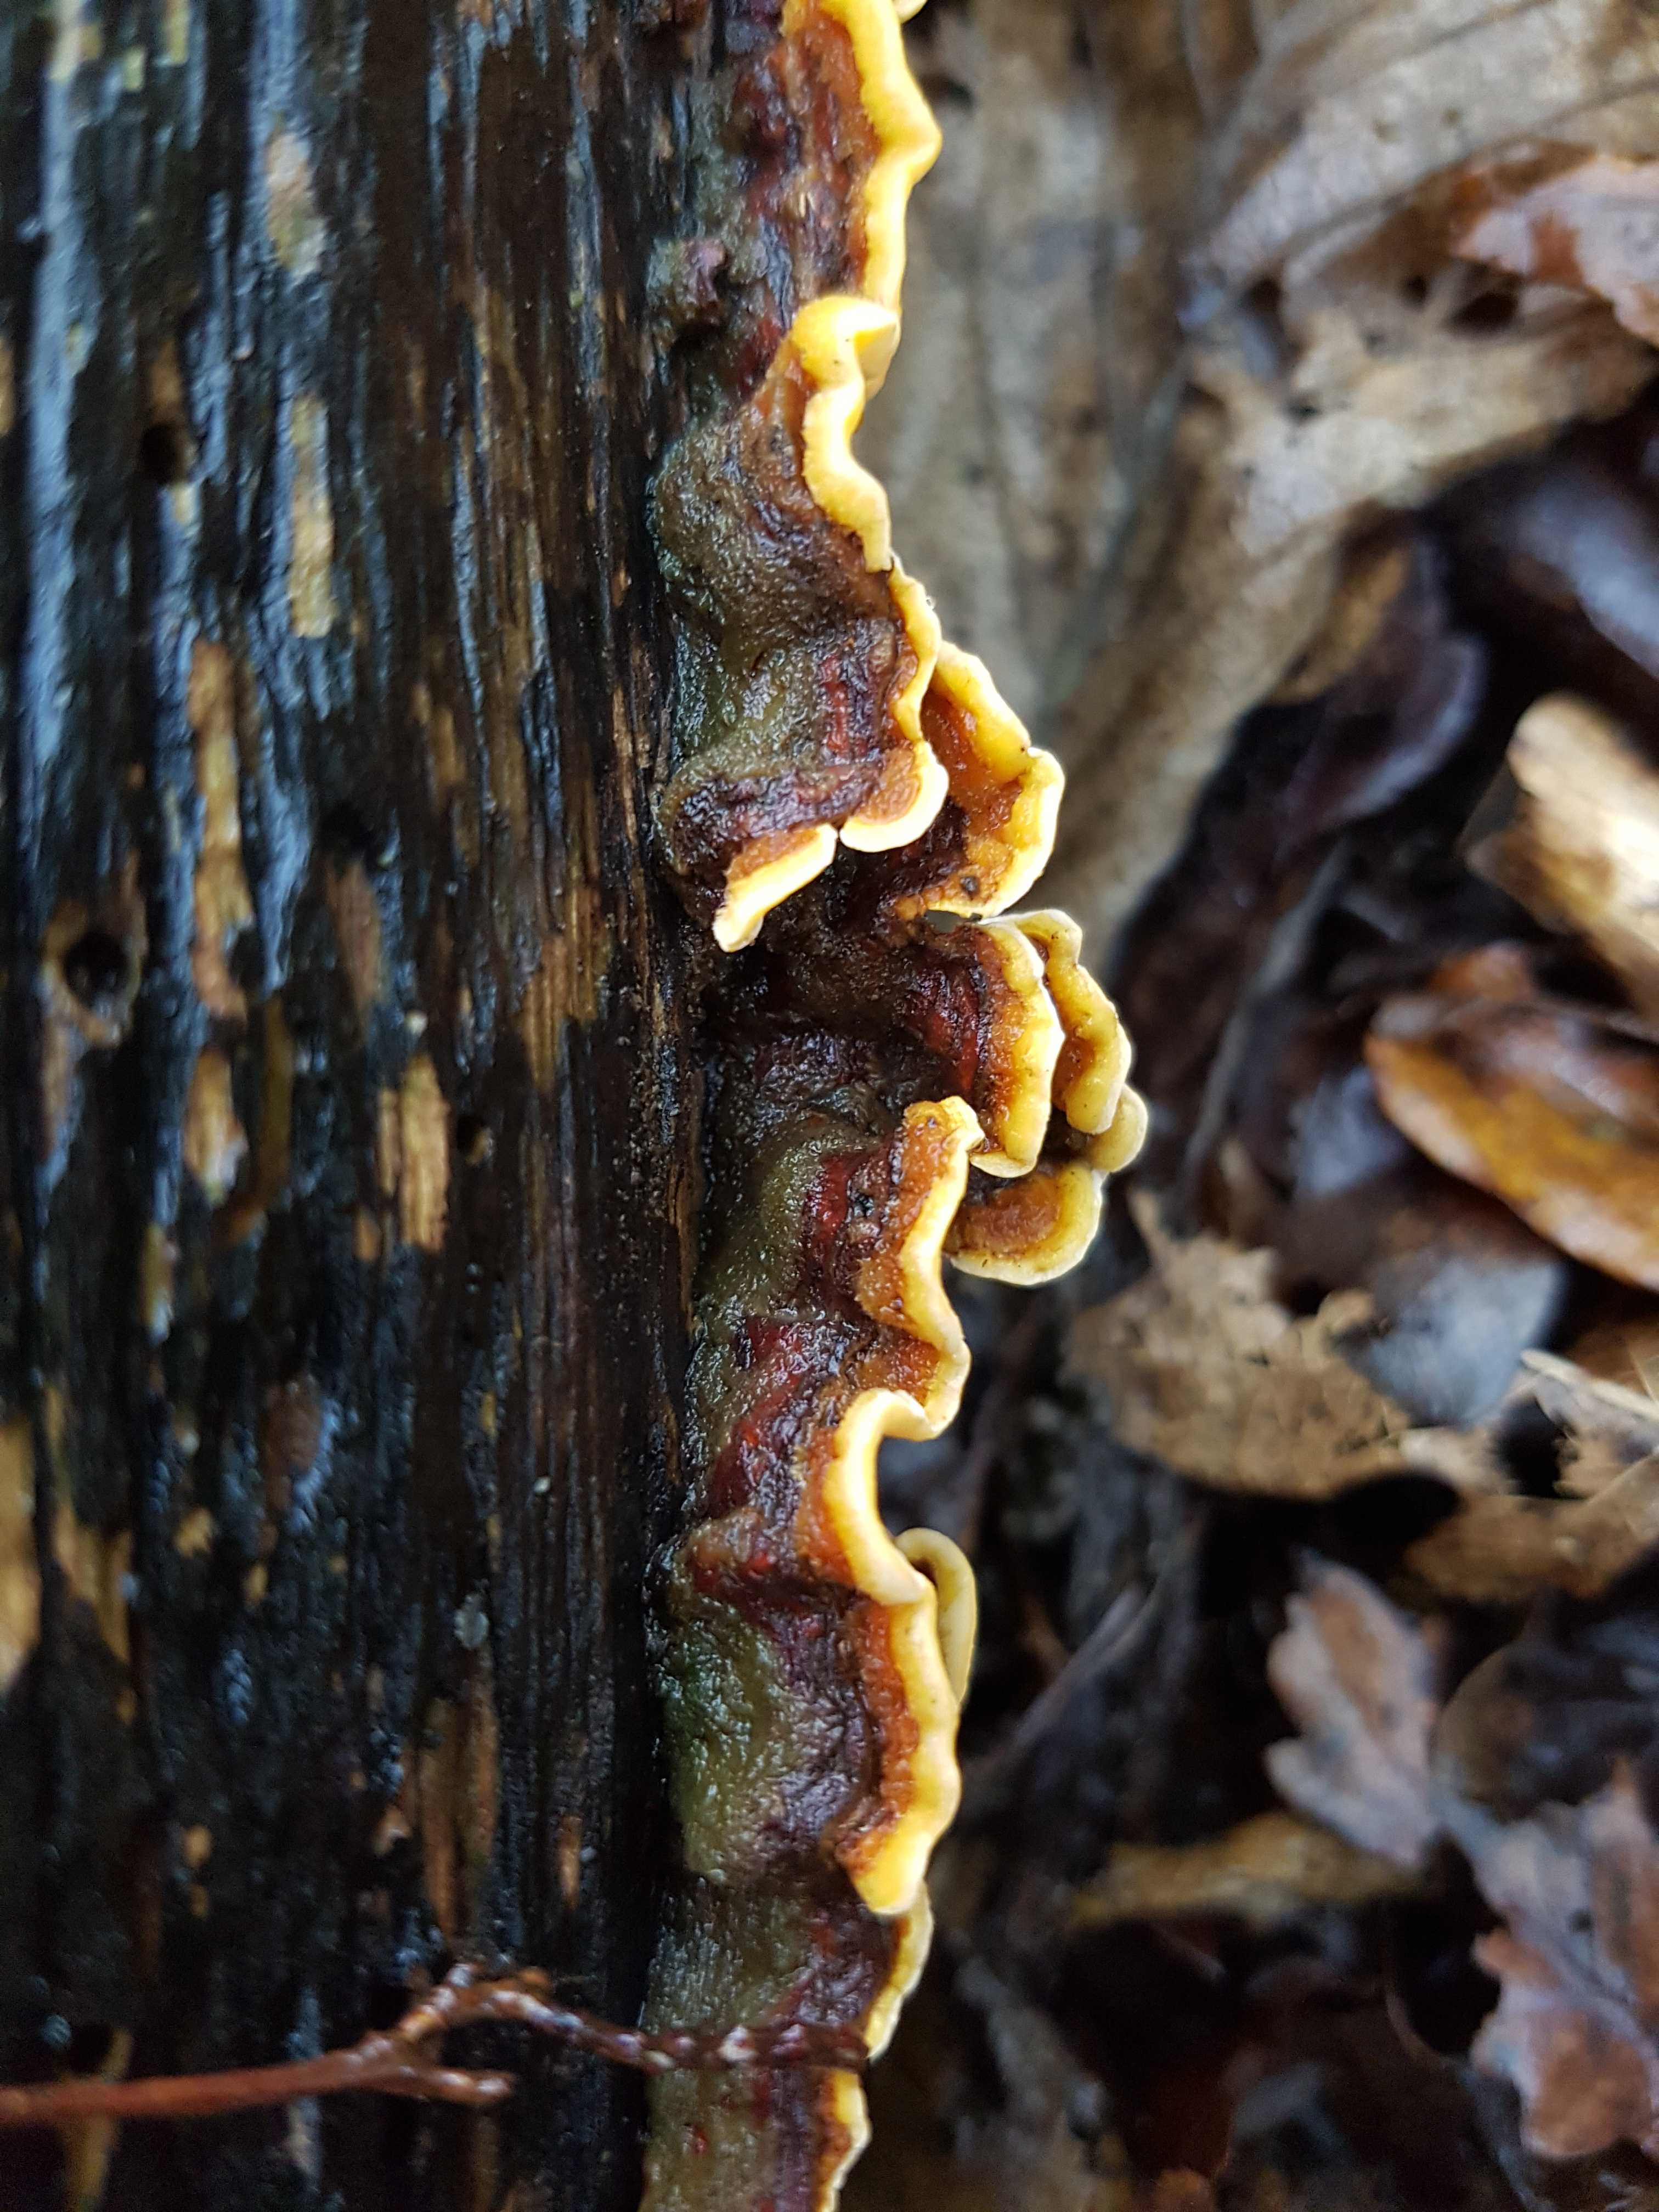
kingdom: Fungi
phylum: Basidiomycota
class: Agaricomycetes
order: Russulales
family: Stereaceae
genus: Stereum
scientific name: Stereum hirsutum
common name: håret lædersvamp
